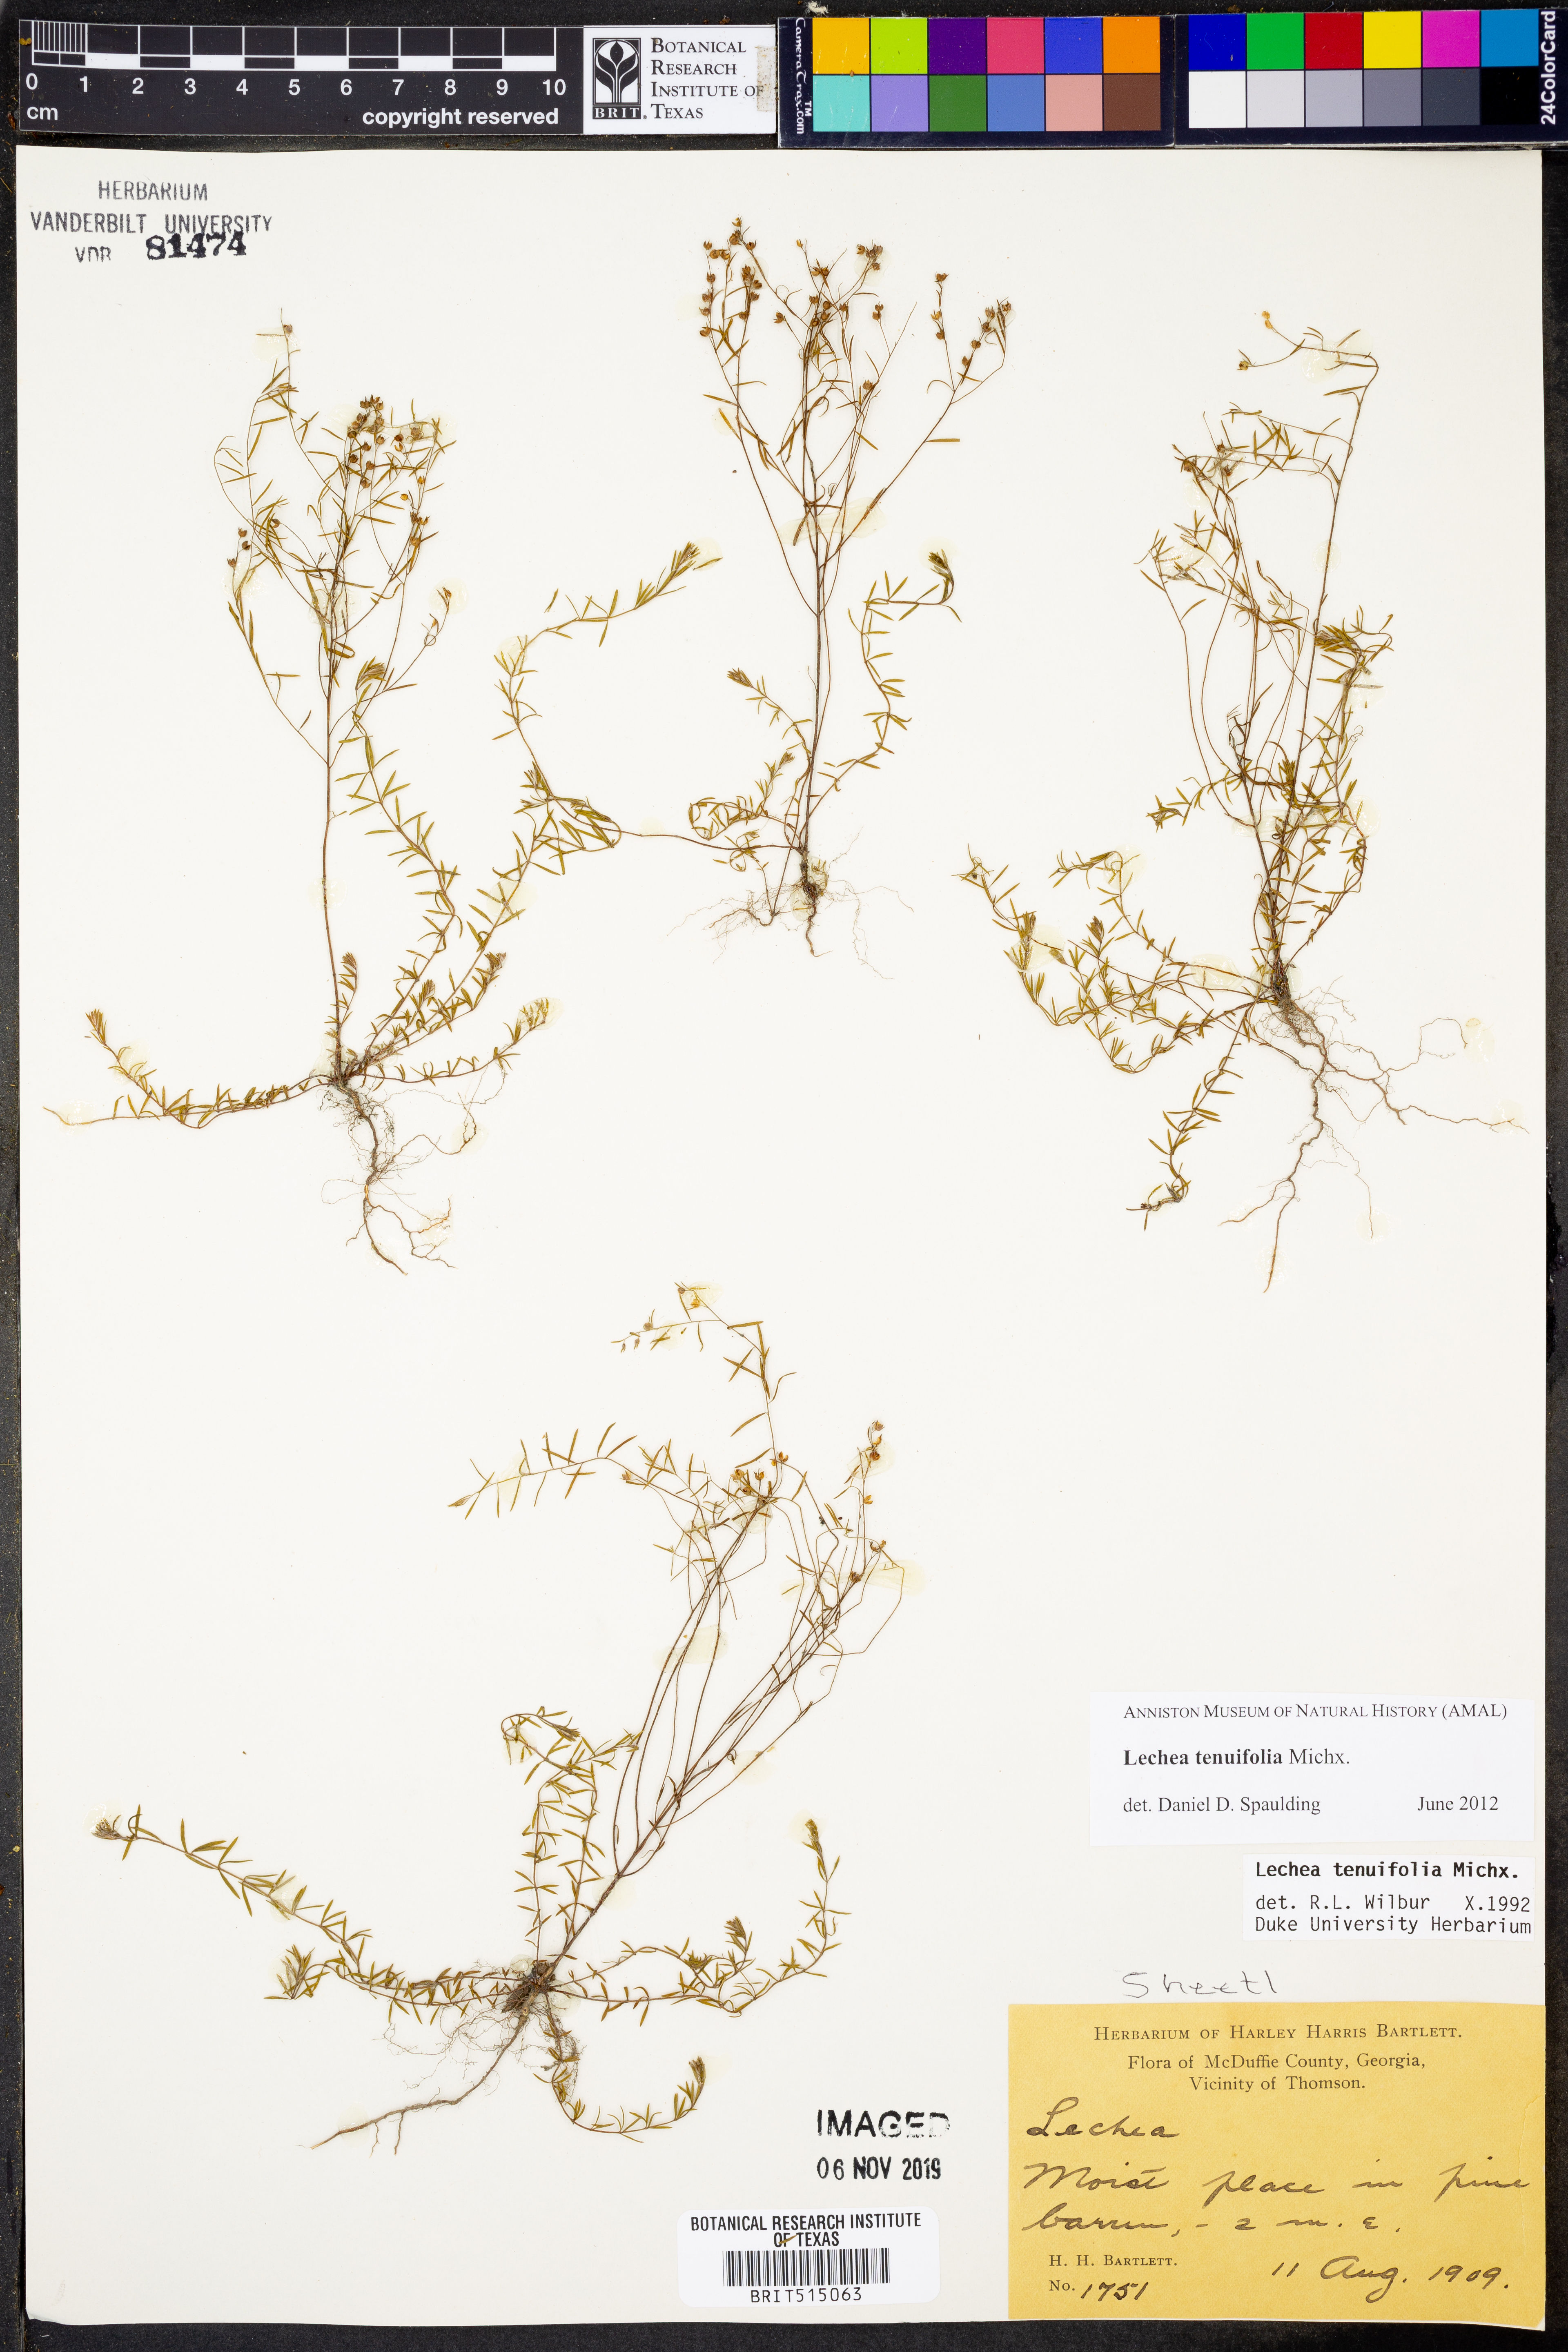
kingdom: Plantae
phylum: Tracheophyta
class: Magnoliopsida
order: Malvales
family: Cistaceae
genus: Lechea
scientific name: Lechea tenuifolia
